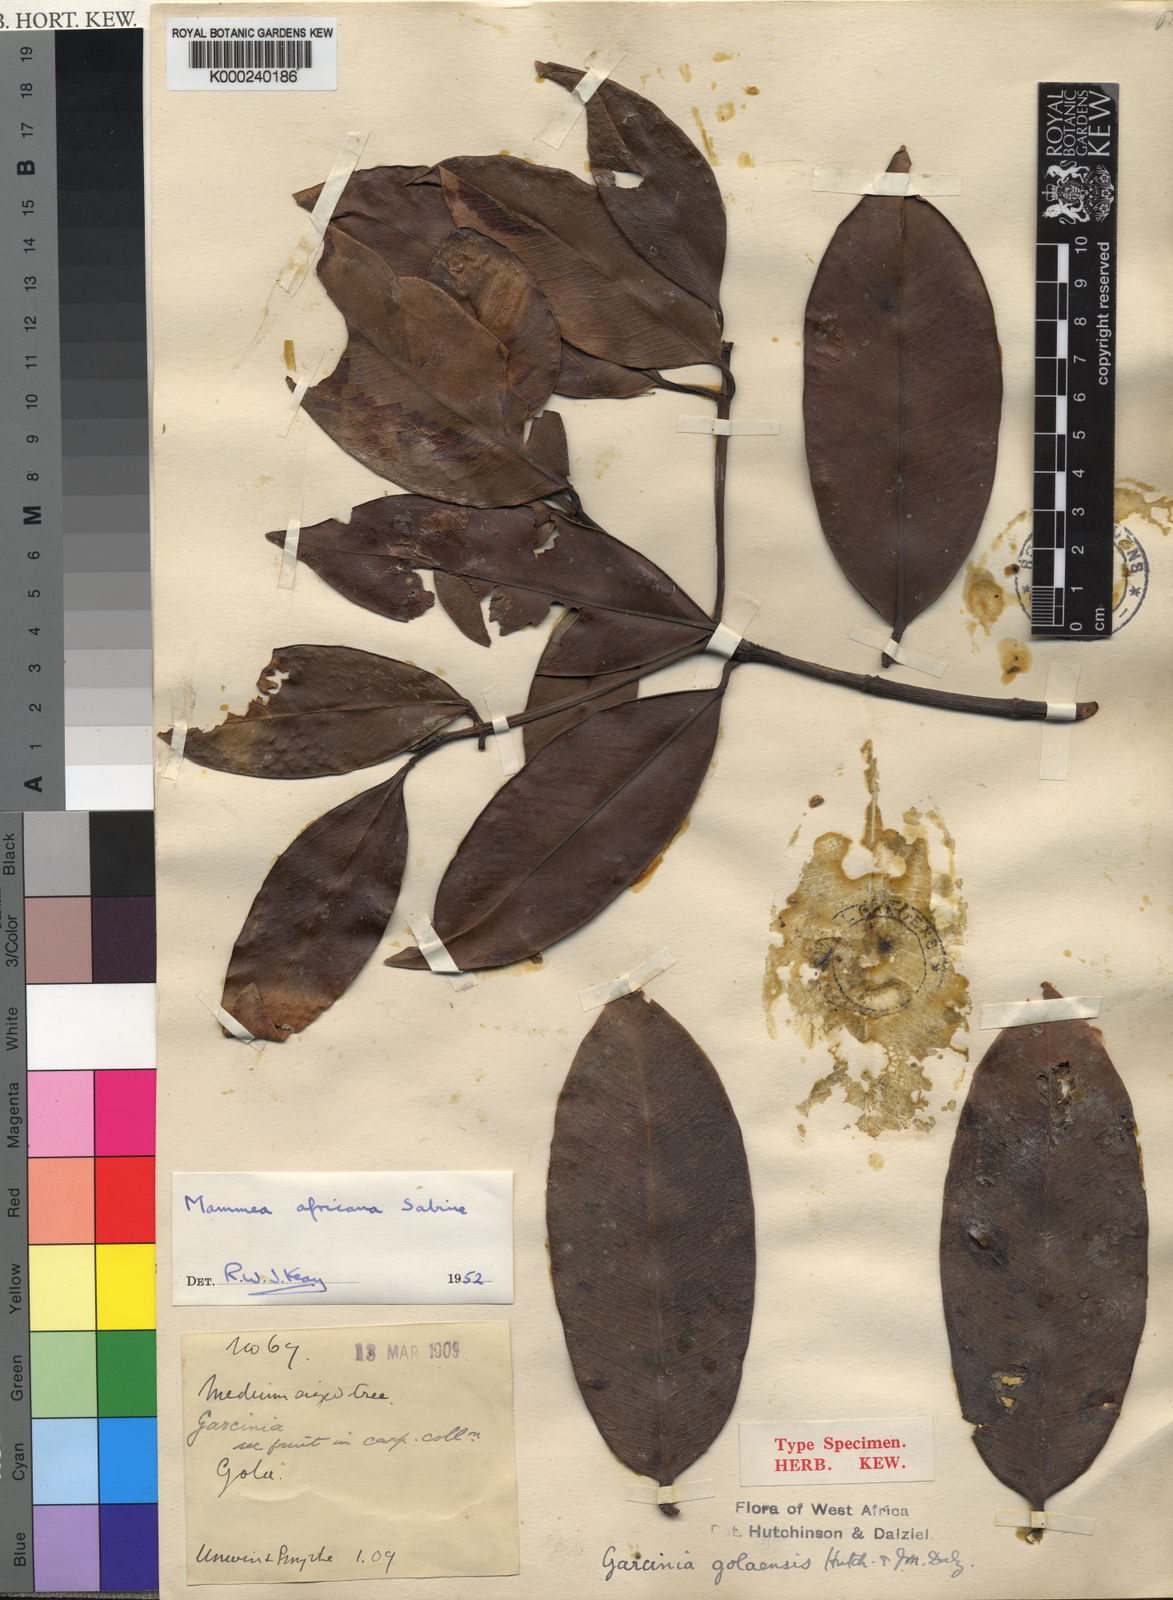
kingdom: Plantae
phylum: Tracheophyta
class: Magnoliopsida
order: Malpighiales
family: Calophyllaceae
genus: Mammea
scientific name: Mammea africana
